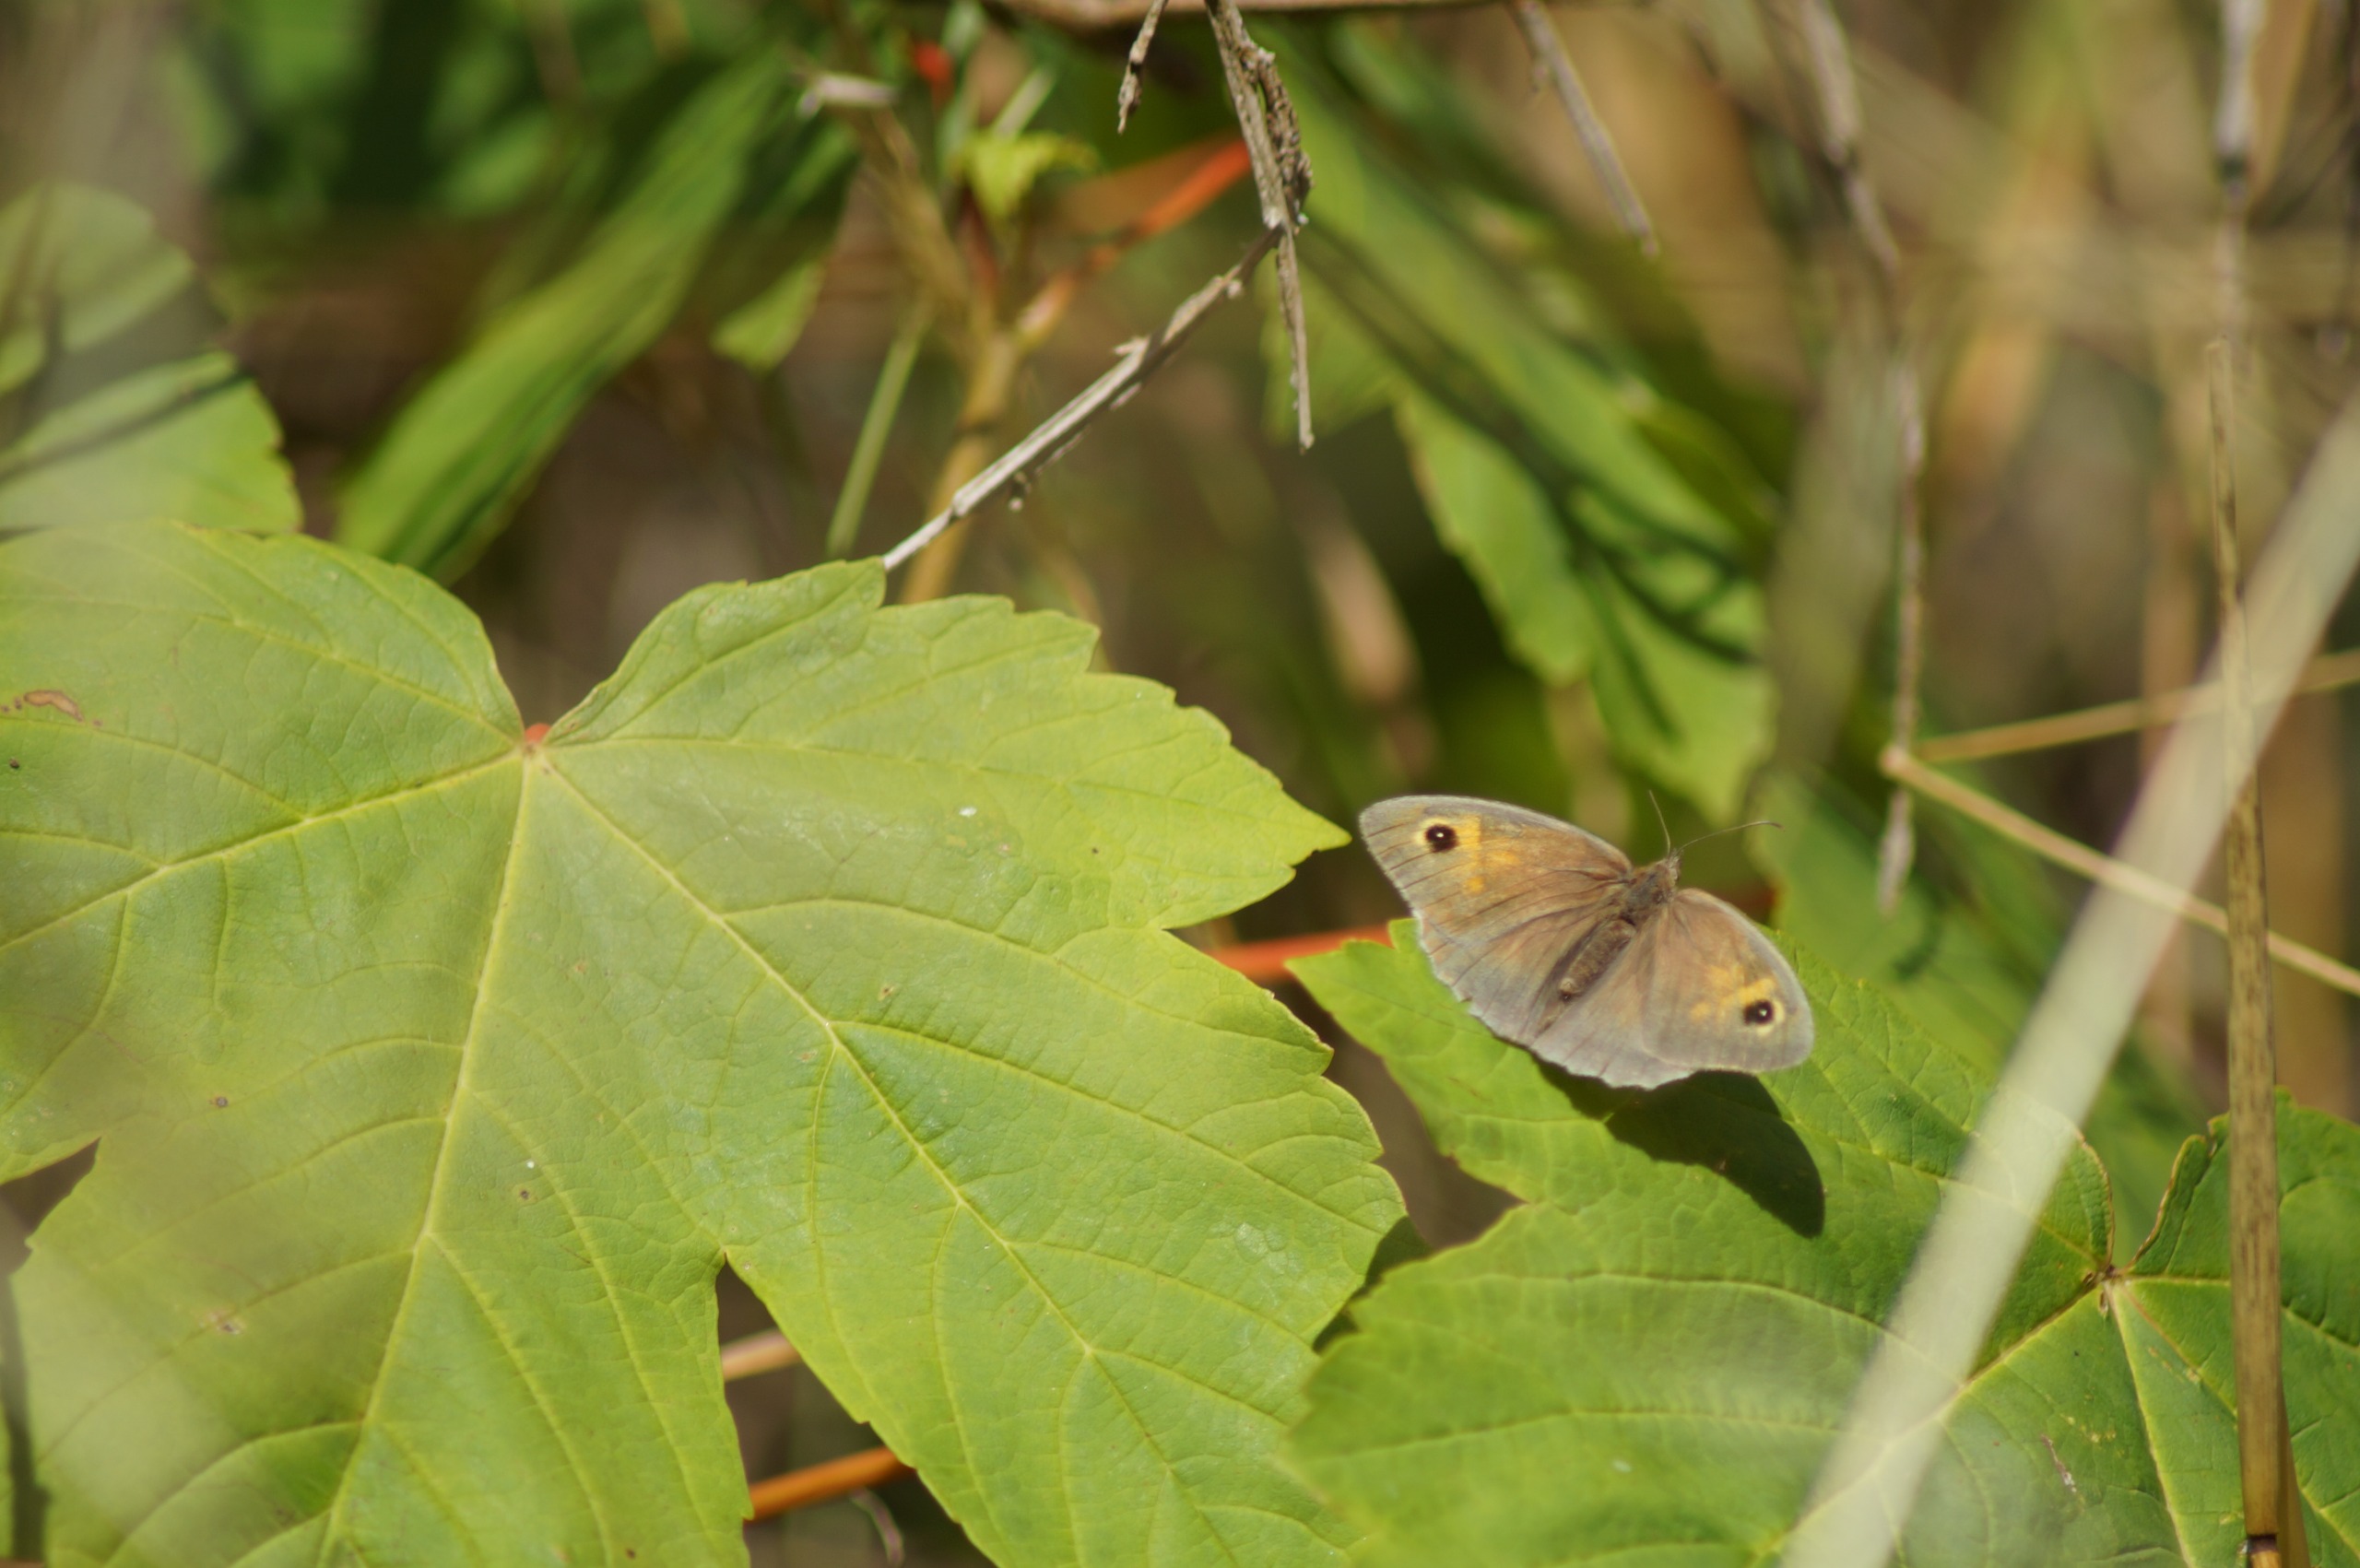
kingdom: Animalia
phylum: Arthropoda
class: Insecta
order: Lepidoptera
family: Nymphalidae
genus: Maniola
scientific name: Maniola jurtina
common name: Græsrandøje
